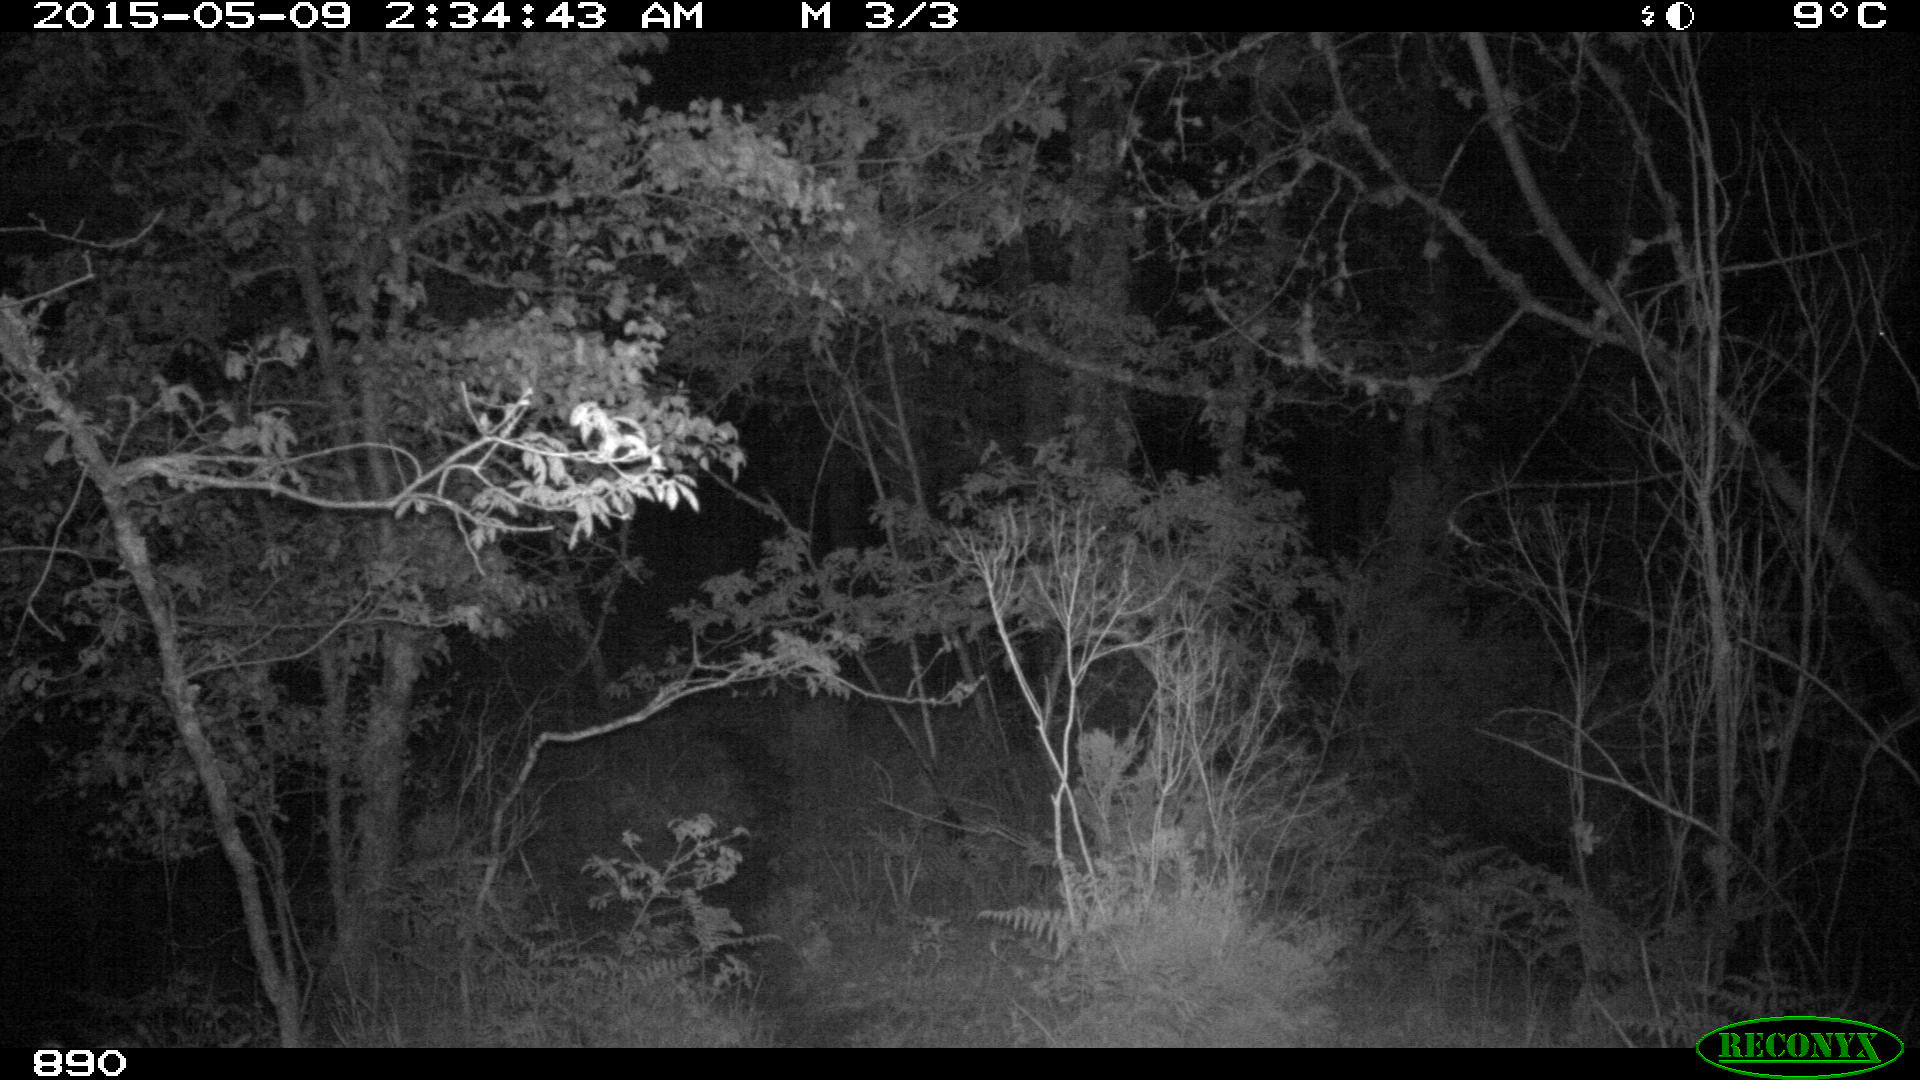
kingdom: Animalia
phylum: Chordata
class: Mammalia
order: Artiodactyla
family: Cervidae
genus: Capreolus
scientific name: Capreolus capreolus
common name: Western roe deer
